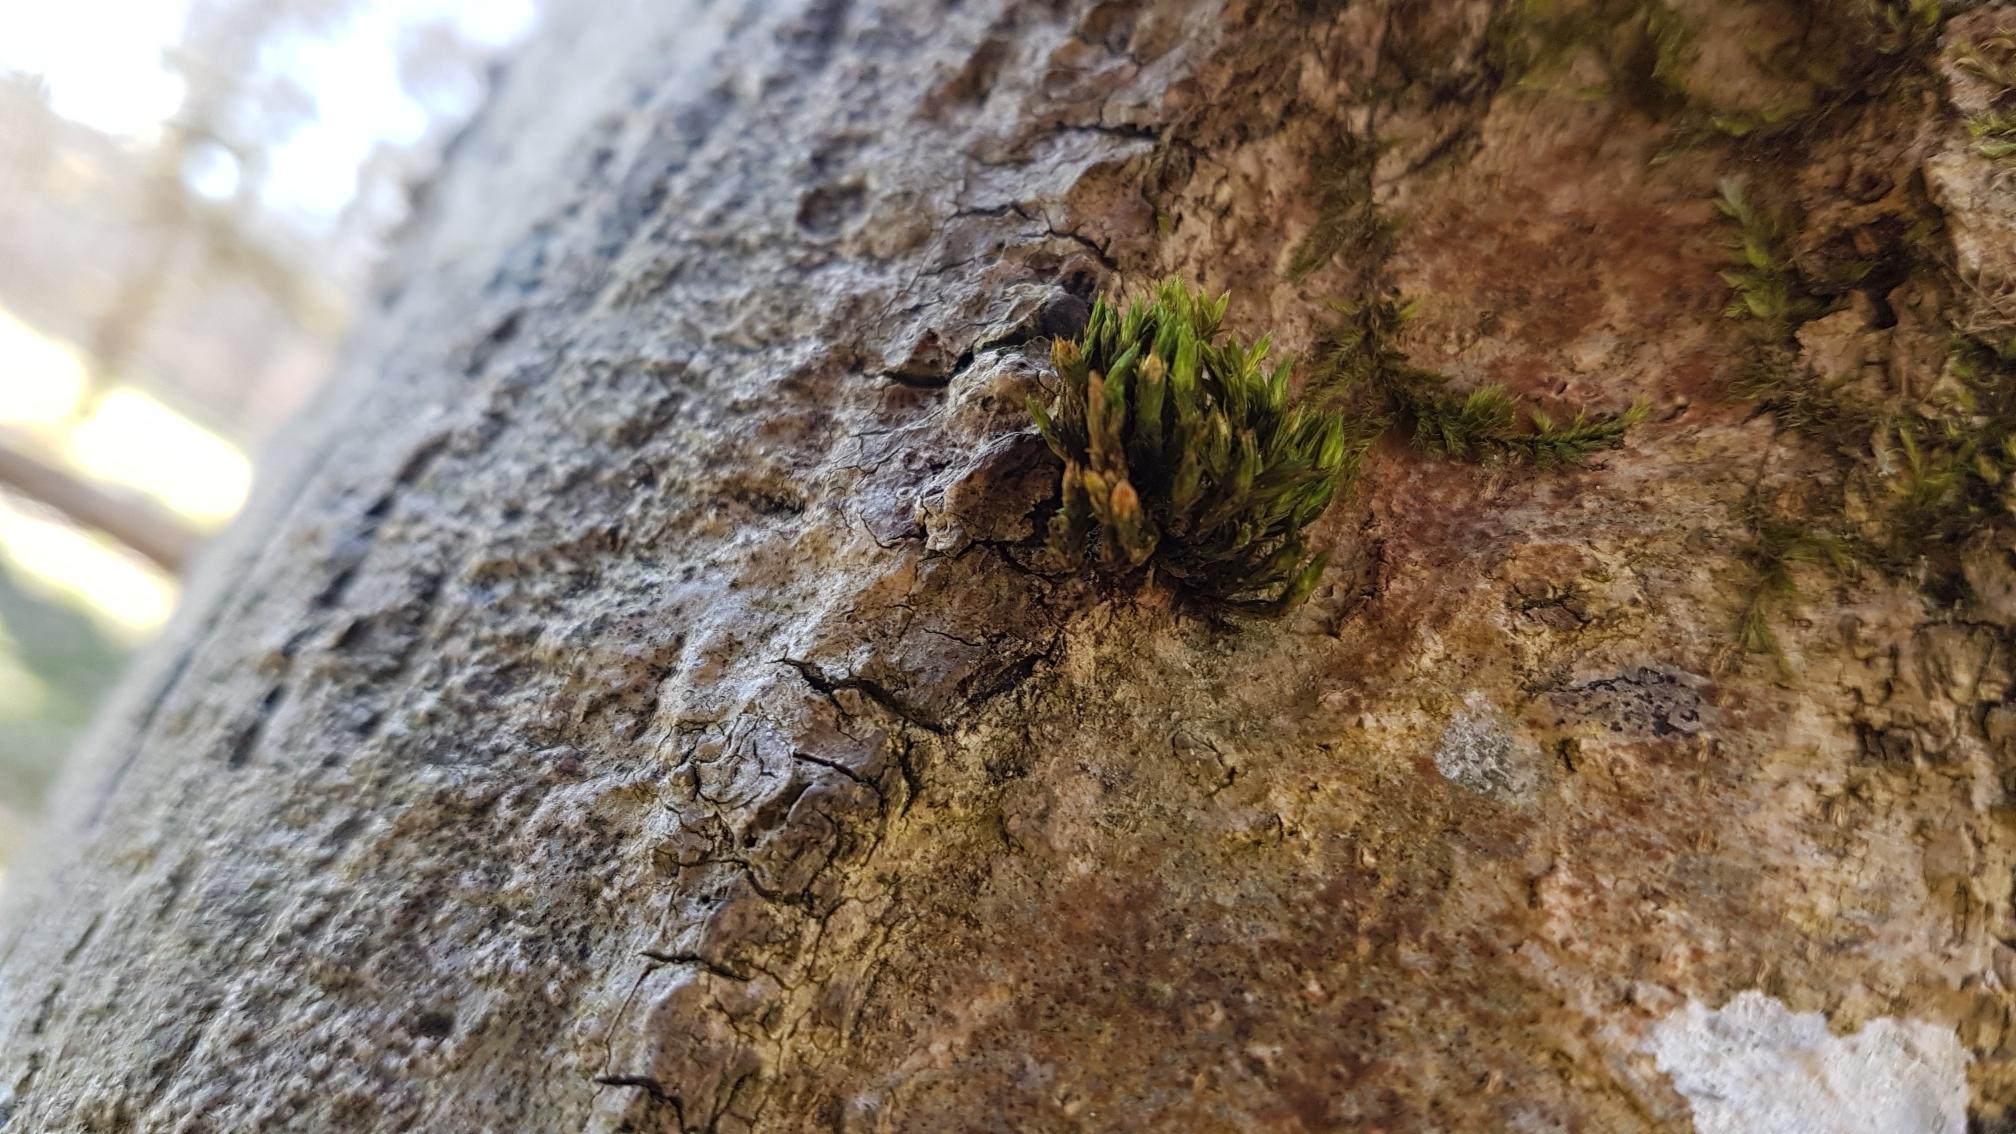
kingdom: Plantae
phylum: Bryophyta
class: Bryopsida
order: Orthotrichales
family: Orthotrichaceae
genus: Lewinskya
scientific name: Lewinskya striata
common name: Glatkapslet furehætte
